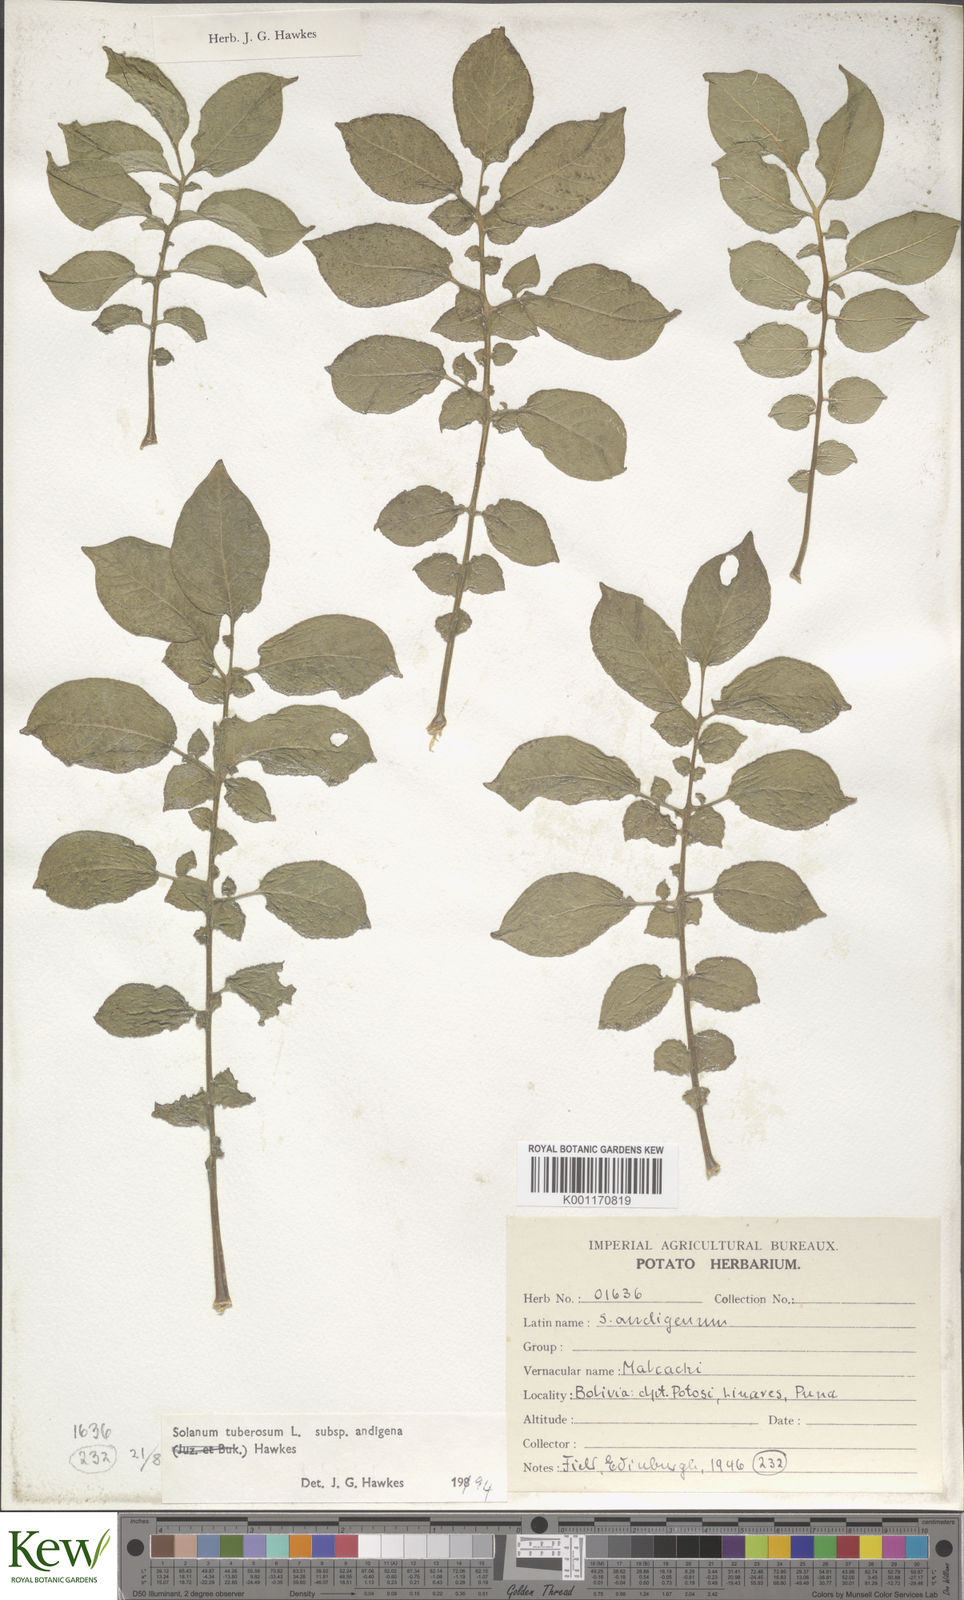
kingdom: Plantae
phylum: Tracheophyta
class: Magnoliopsida
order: Solanales
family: Solanaceae
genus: Solanum
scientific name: Solanum tuberosum
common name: Potato
